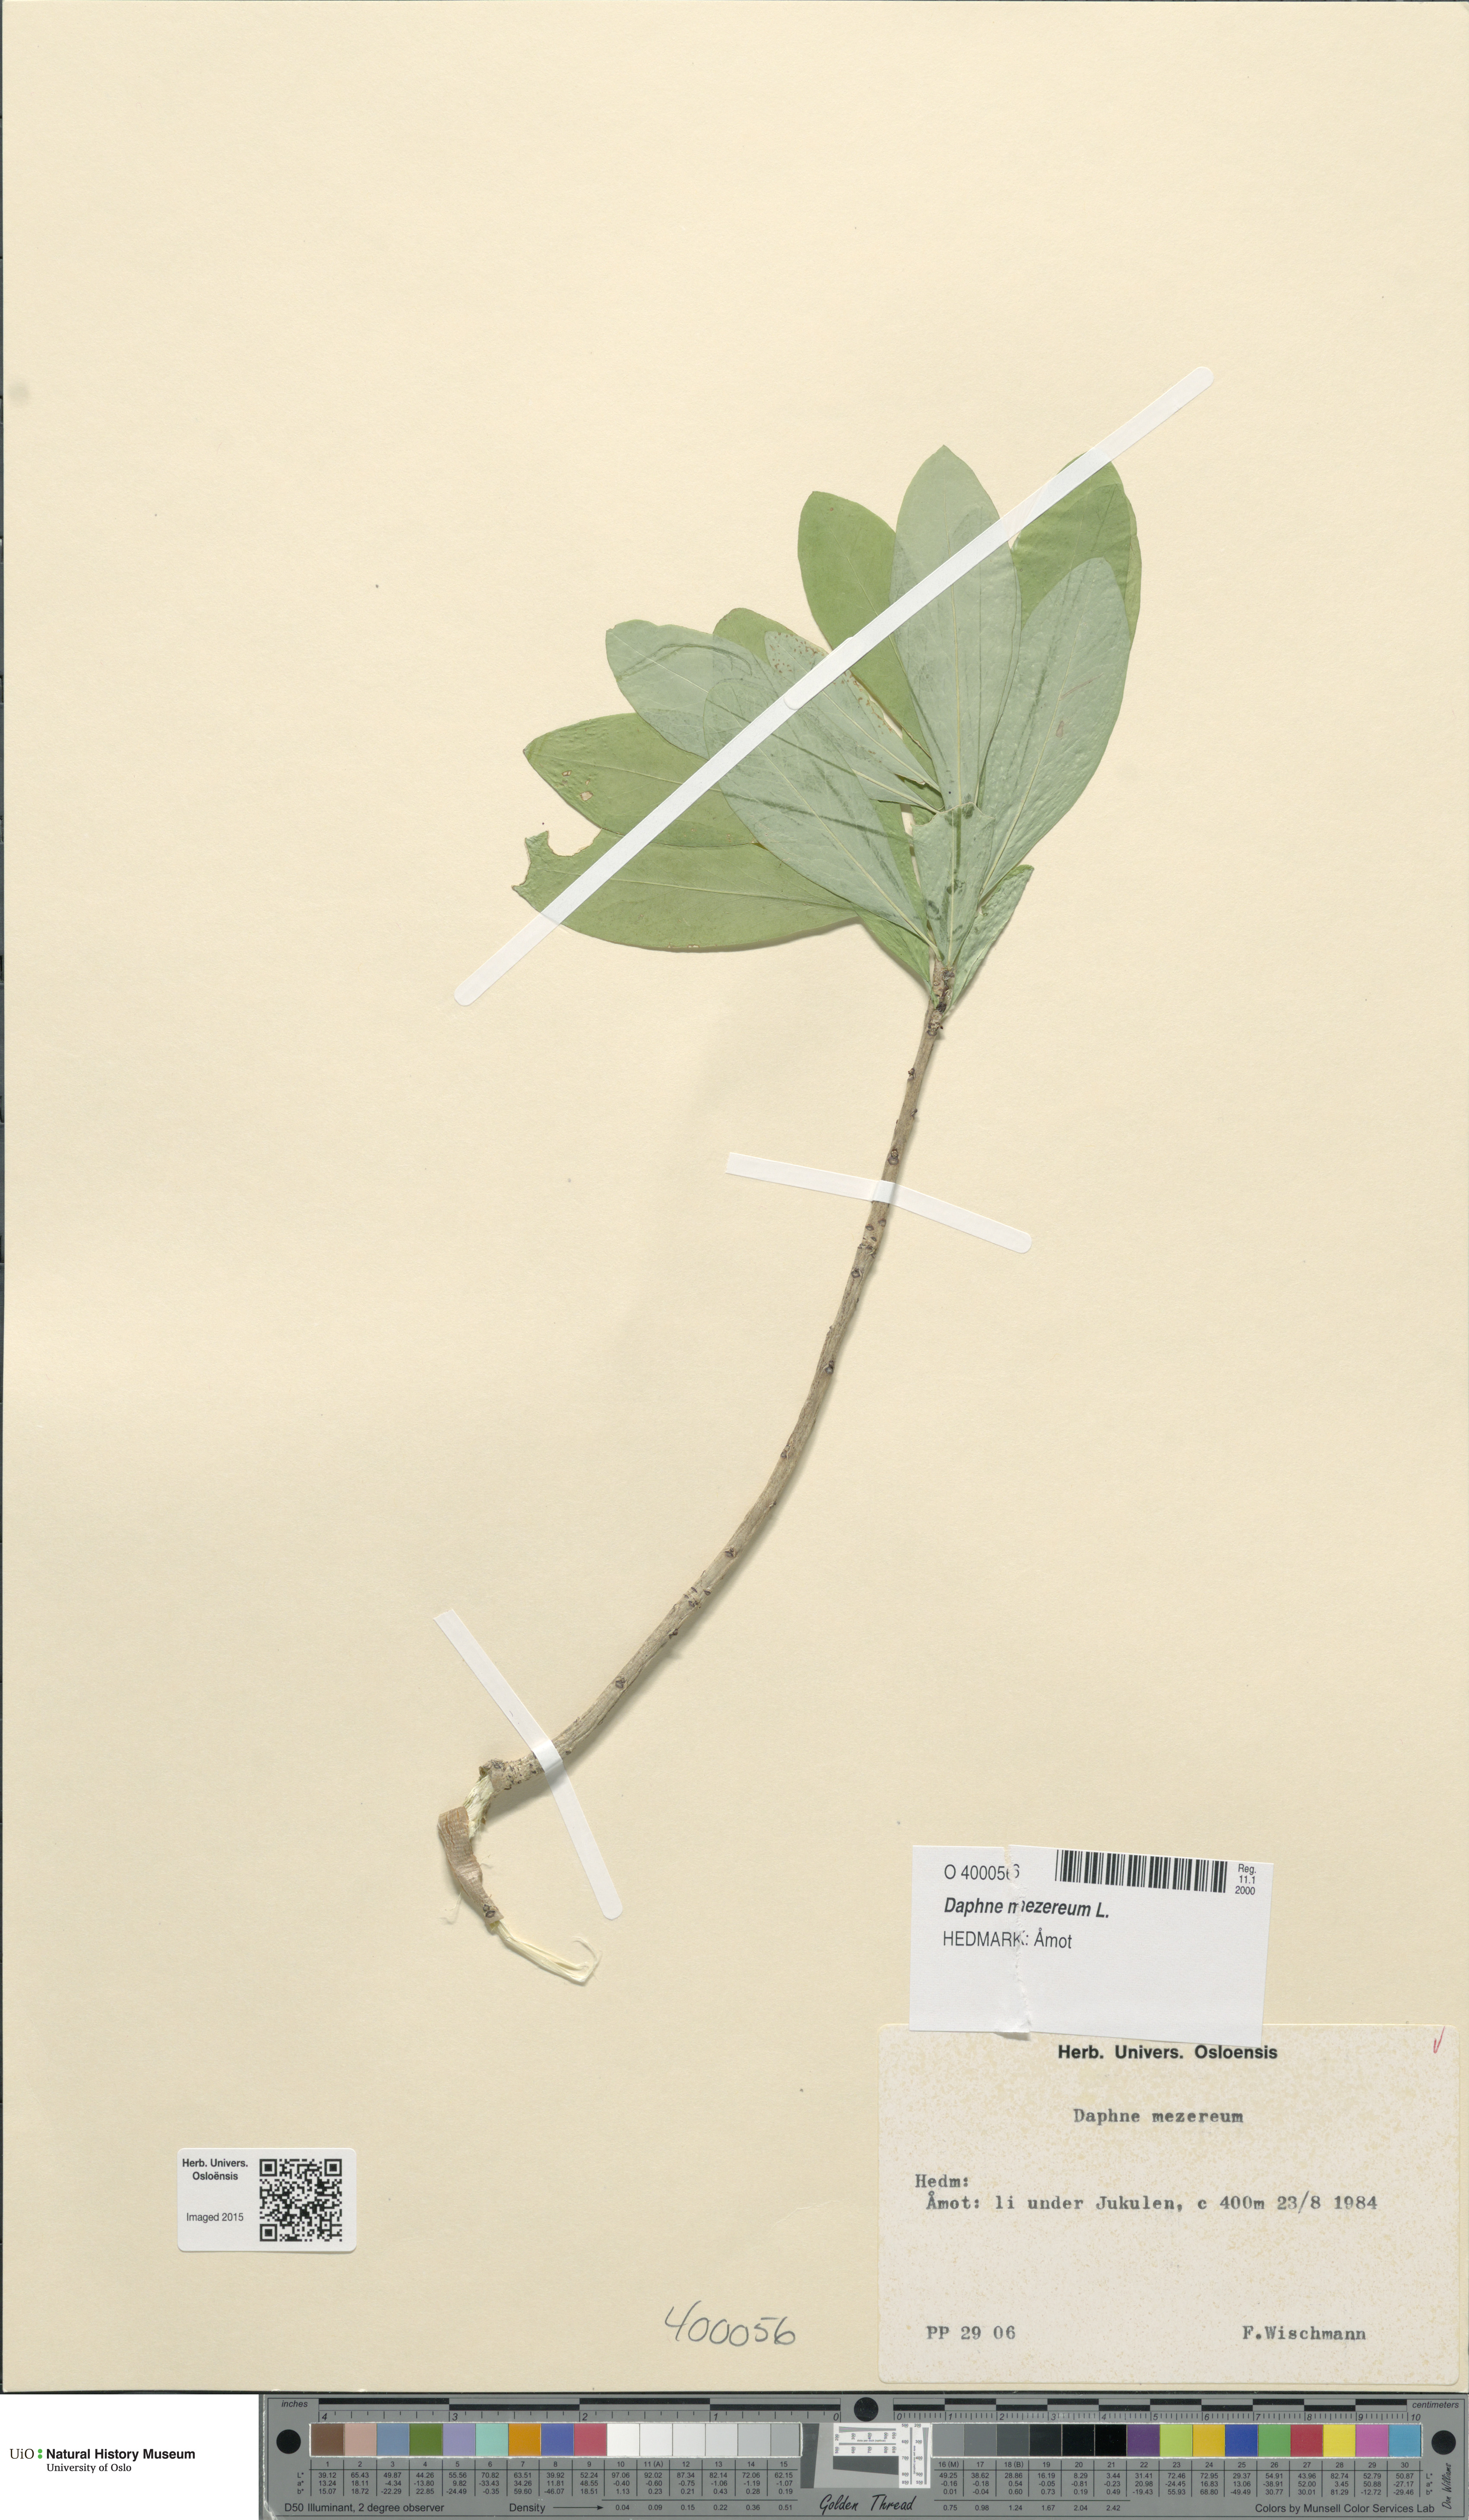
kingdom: Plantae
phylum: Tracheophyta
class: Magnoliopsida
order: Malvales
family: Thymelaeaceae
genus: Daphne
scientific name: Daphne mezereum
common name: Mezereon
